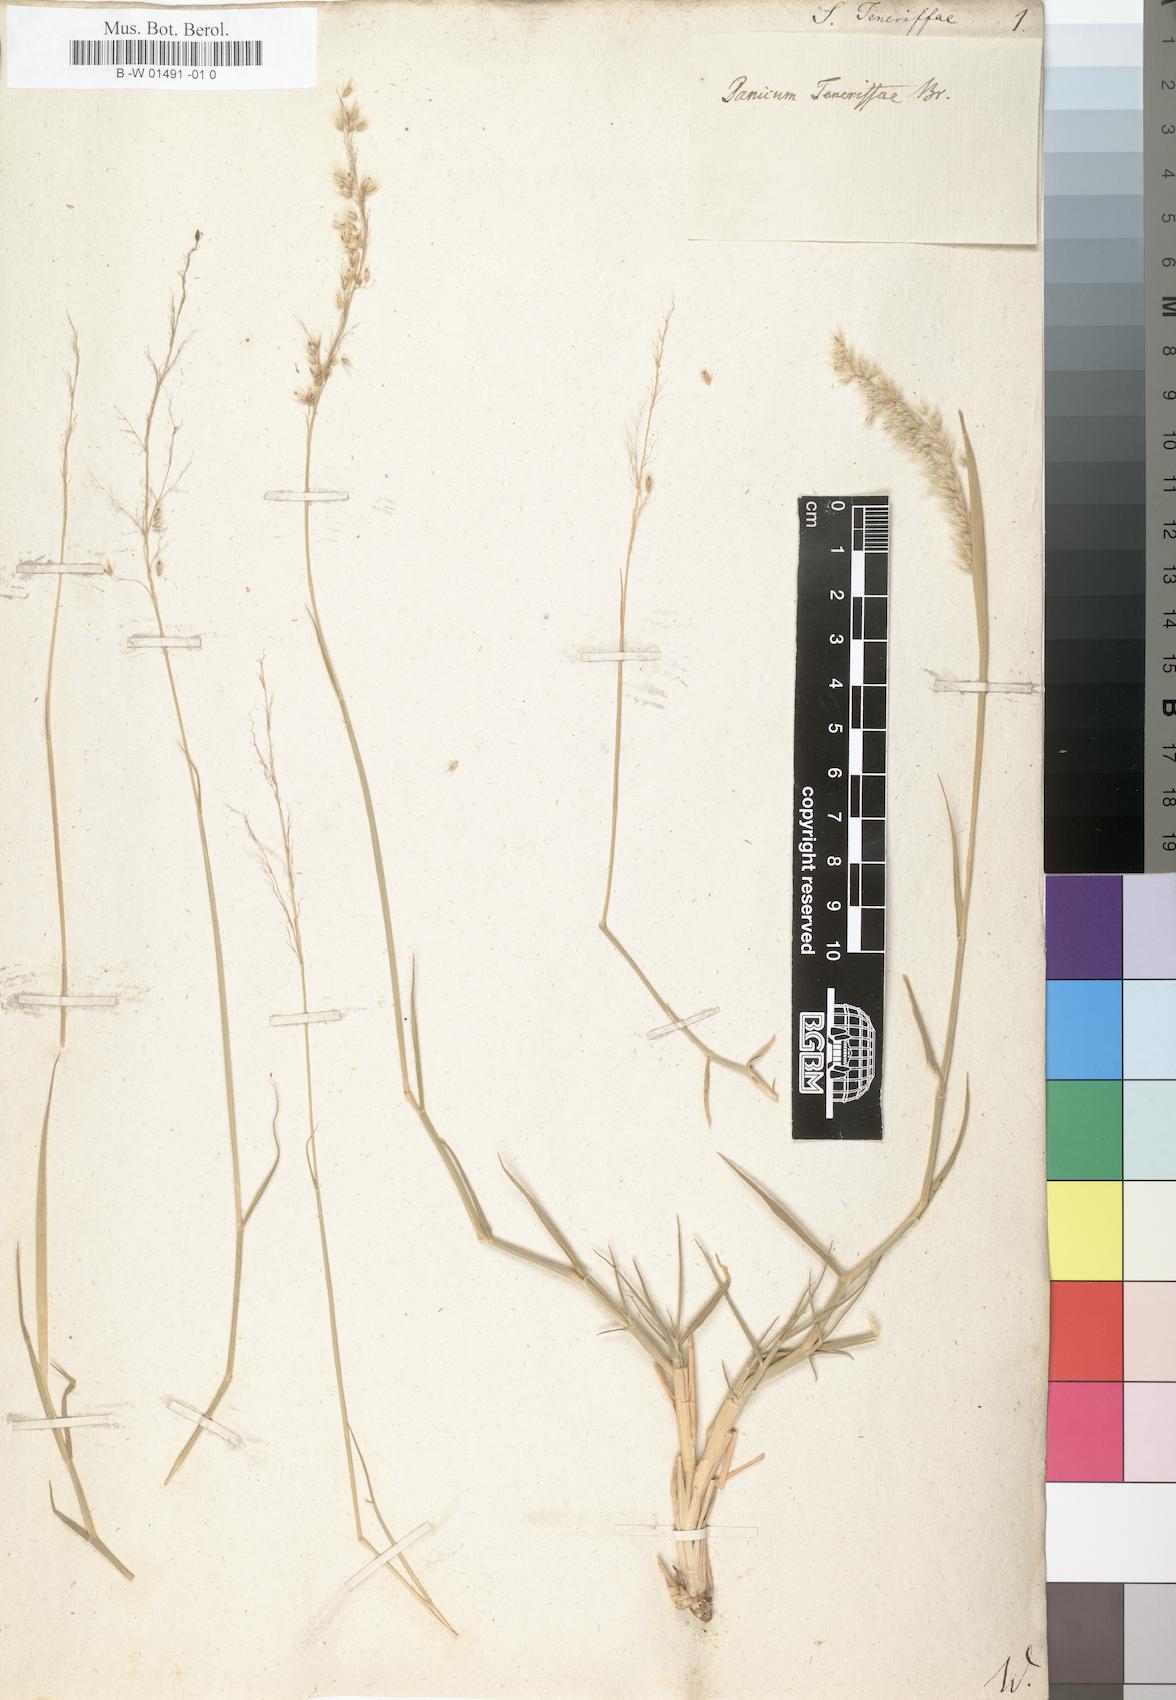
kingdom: Plantae
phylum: Tracheophyta
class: Liliopsida
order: Poales
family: Poaceae
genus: Tricholaena
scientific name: Tricholaena teneriffae
